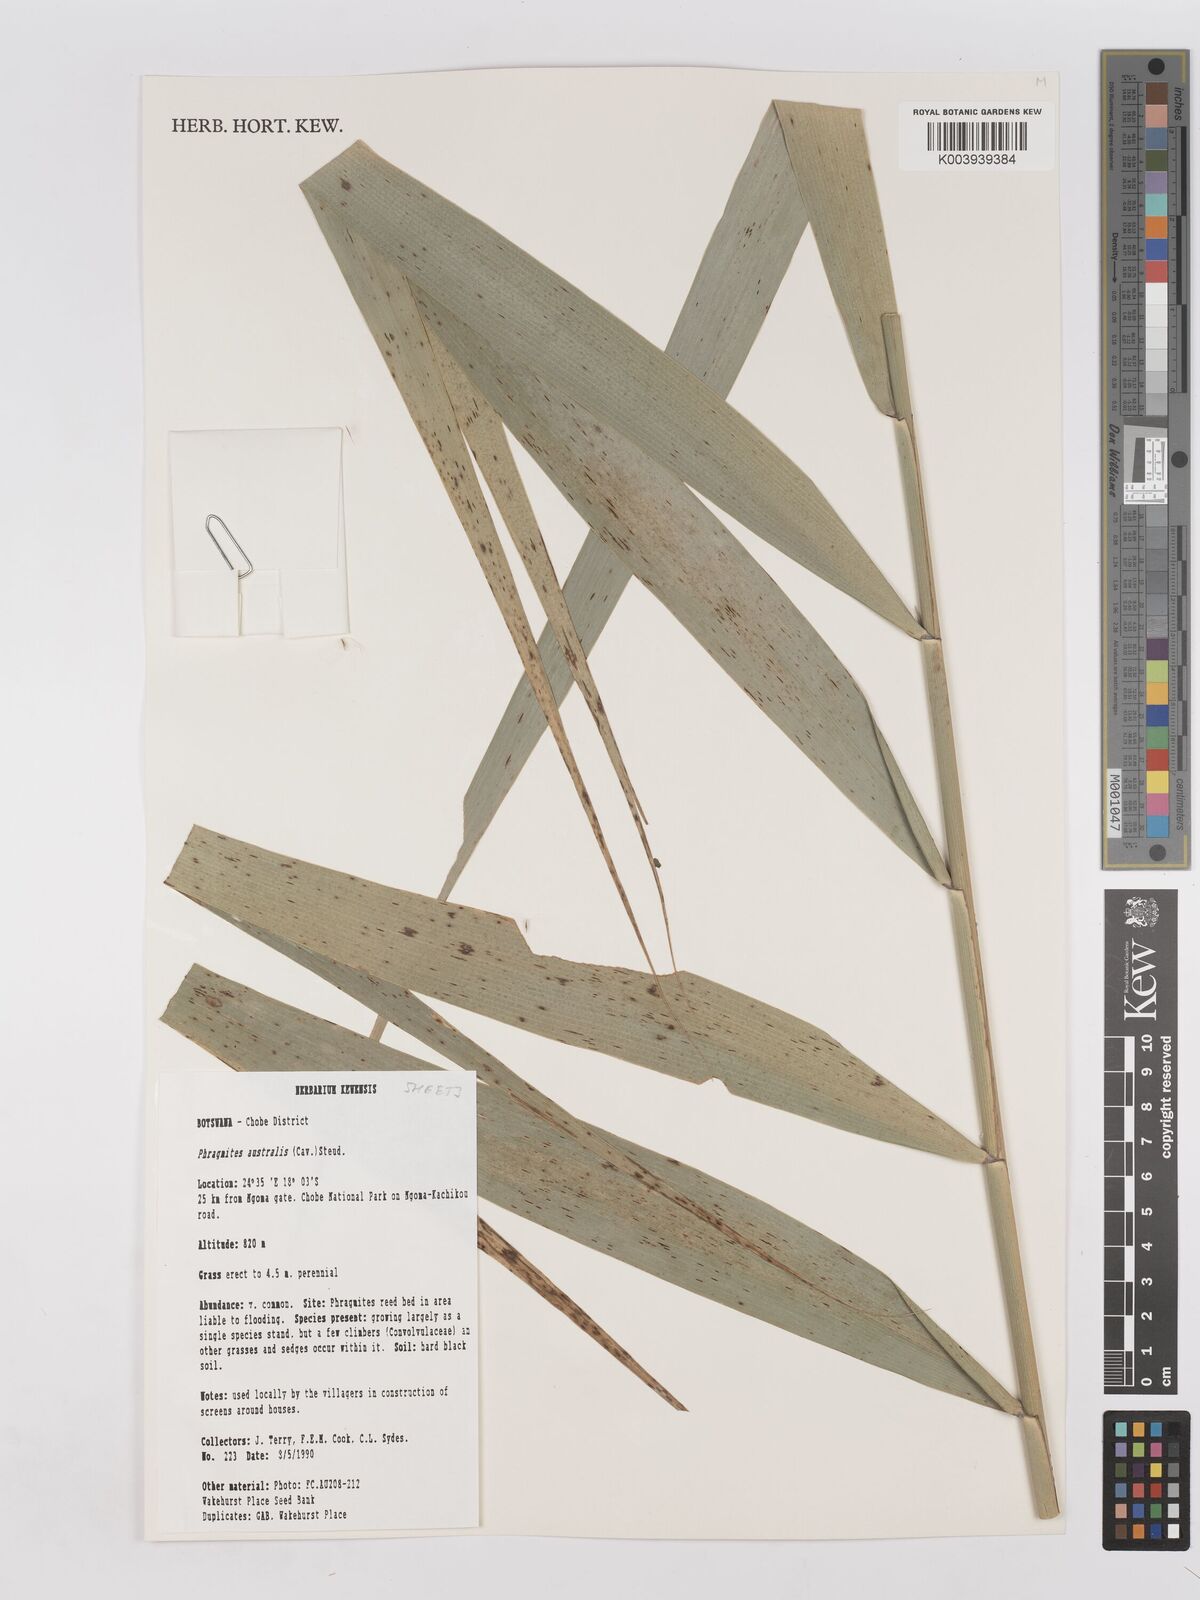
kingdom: Plantae
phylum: Tracheophyta
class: Liliopsida
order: Poales
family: Poaceae
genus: Phragmites
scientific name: Phragmites australis
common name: Common reed
